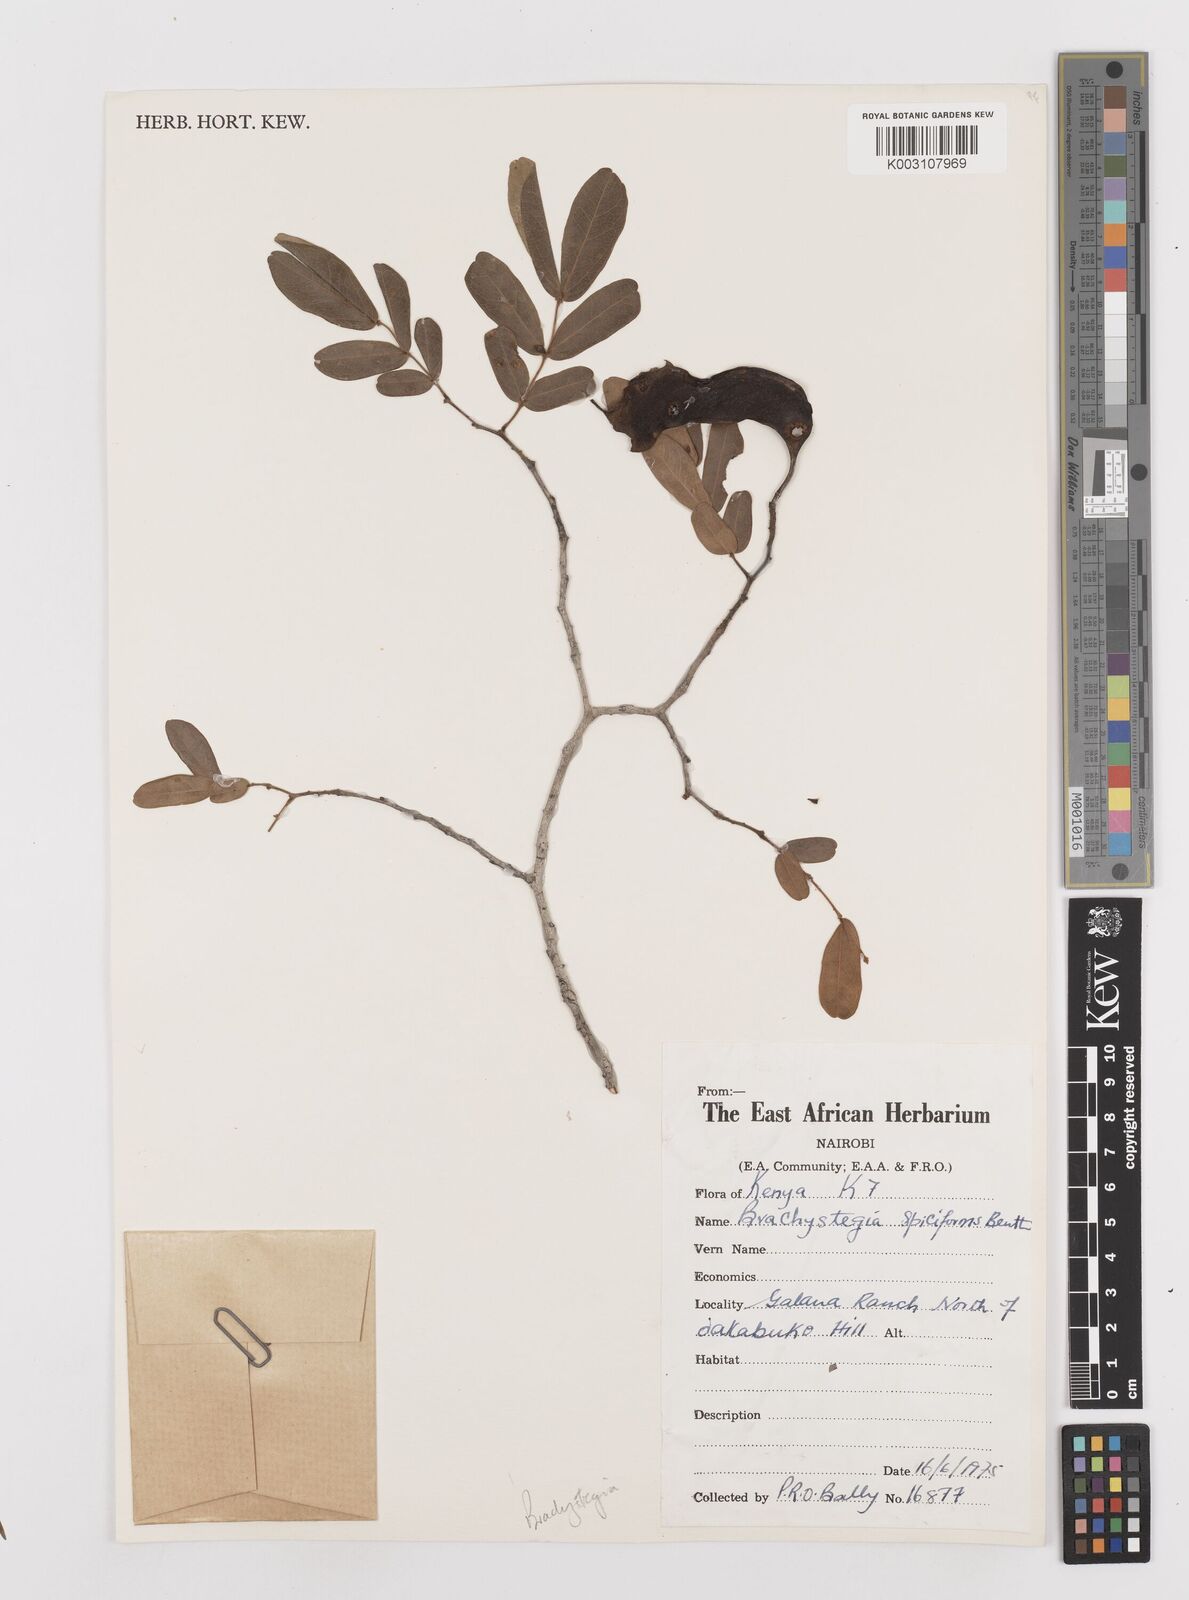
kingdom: Plantae
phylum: Tracheophyta
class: Magnoliopsida
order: Fabales
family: Fabaceae
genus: Brachystegia
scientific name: Brachystegia spiciformis
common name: Zebrawood
